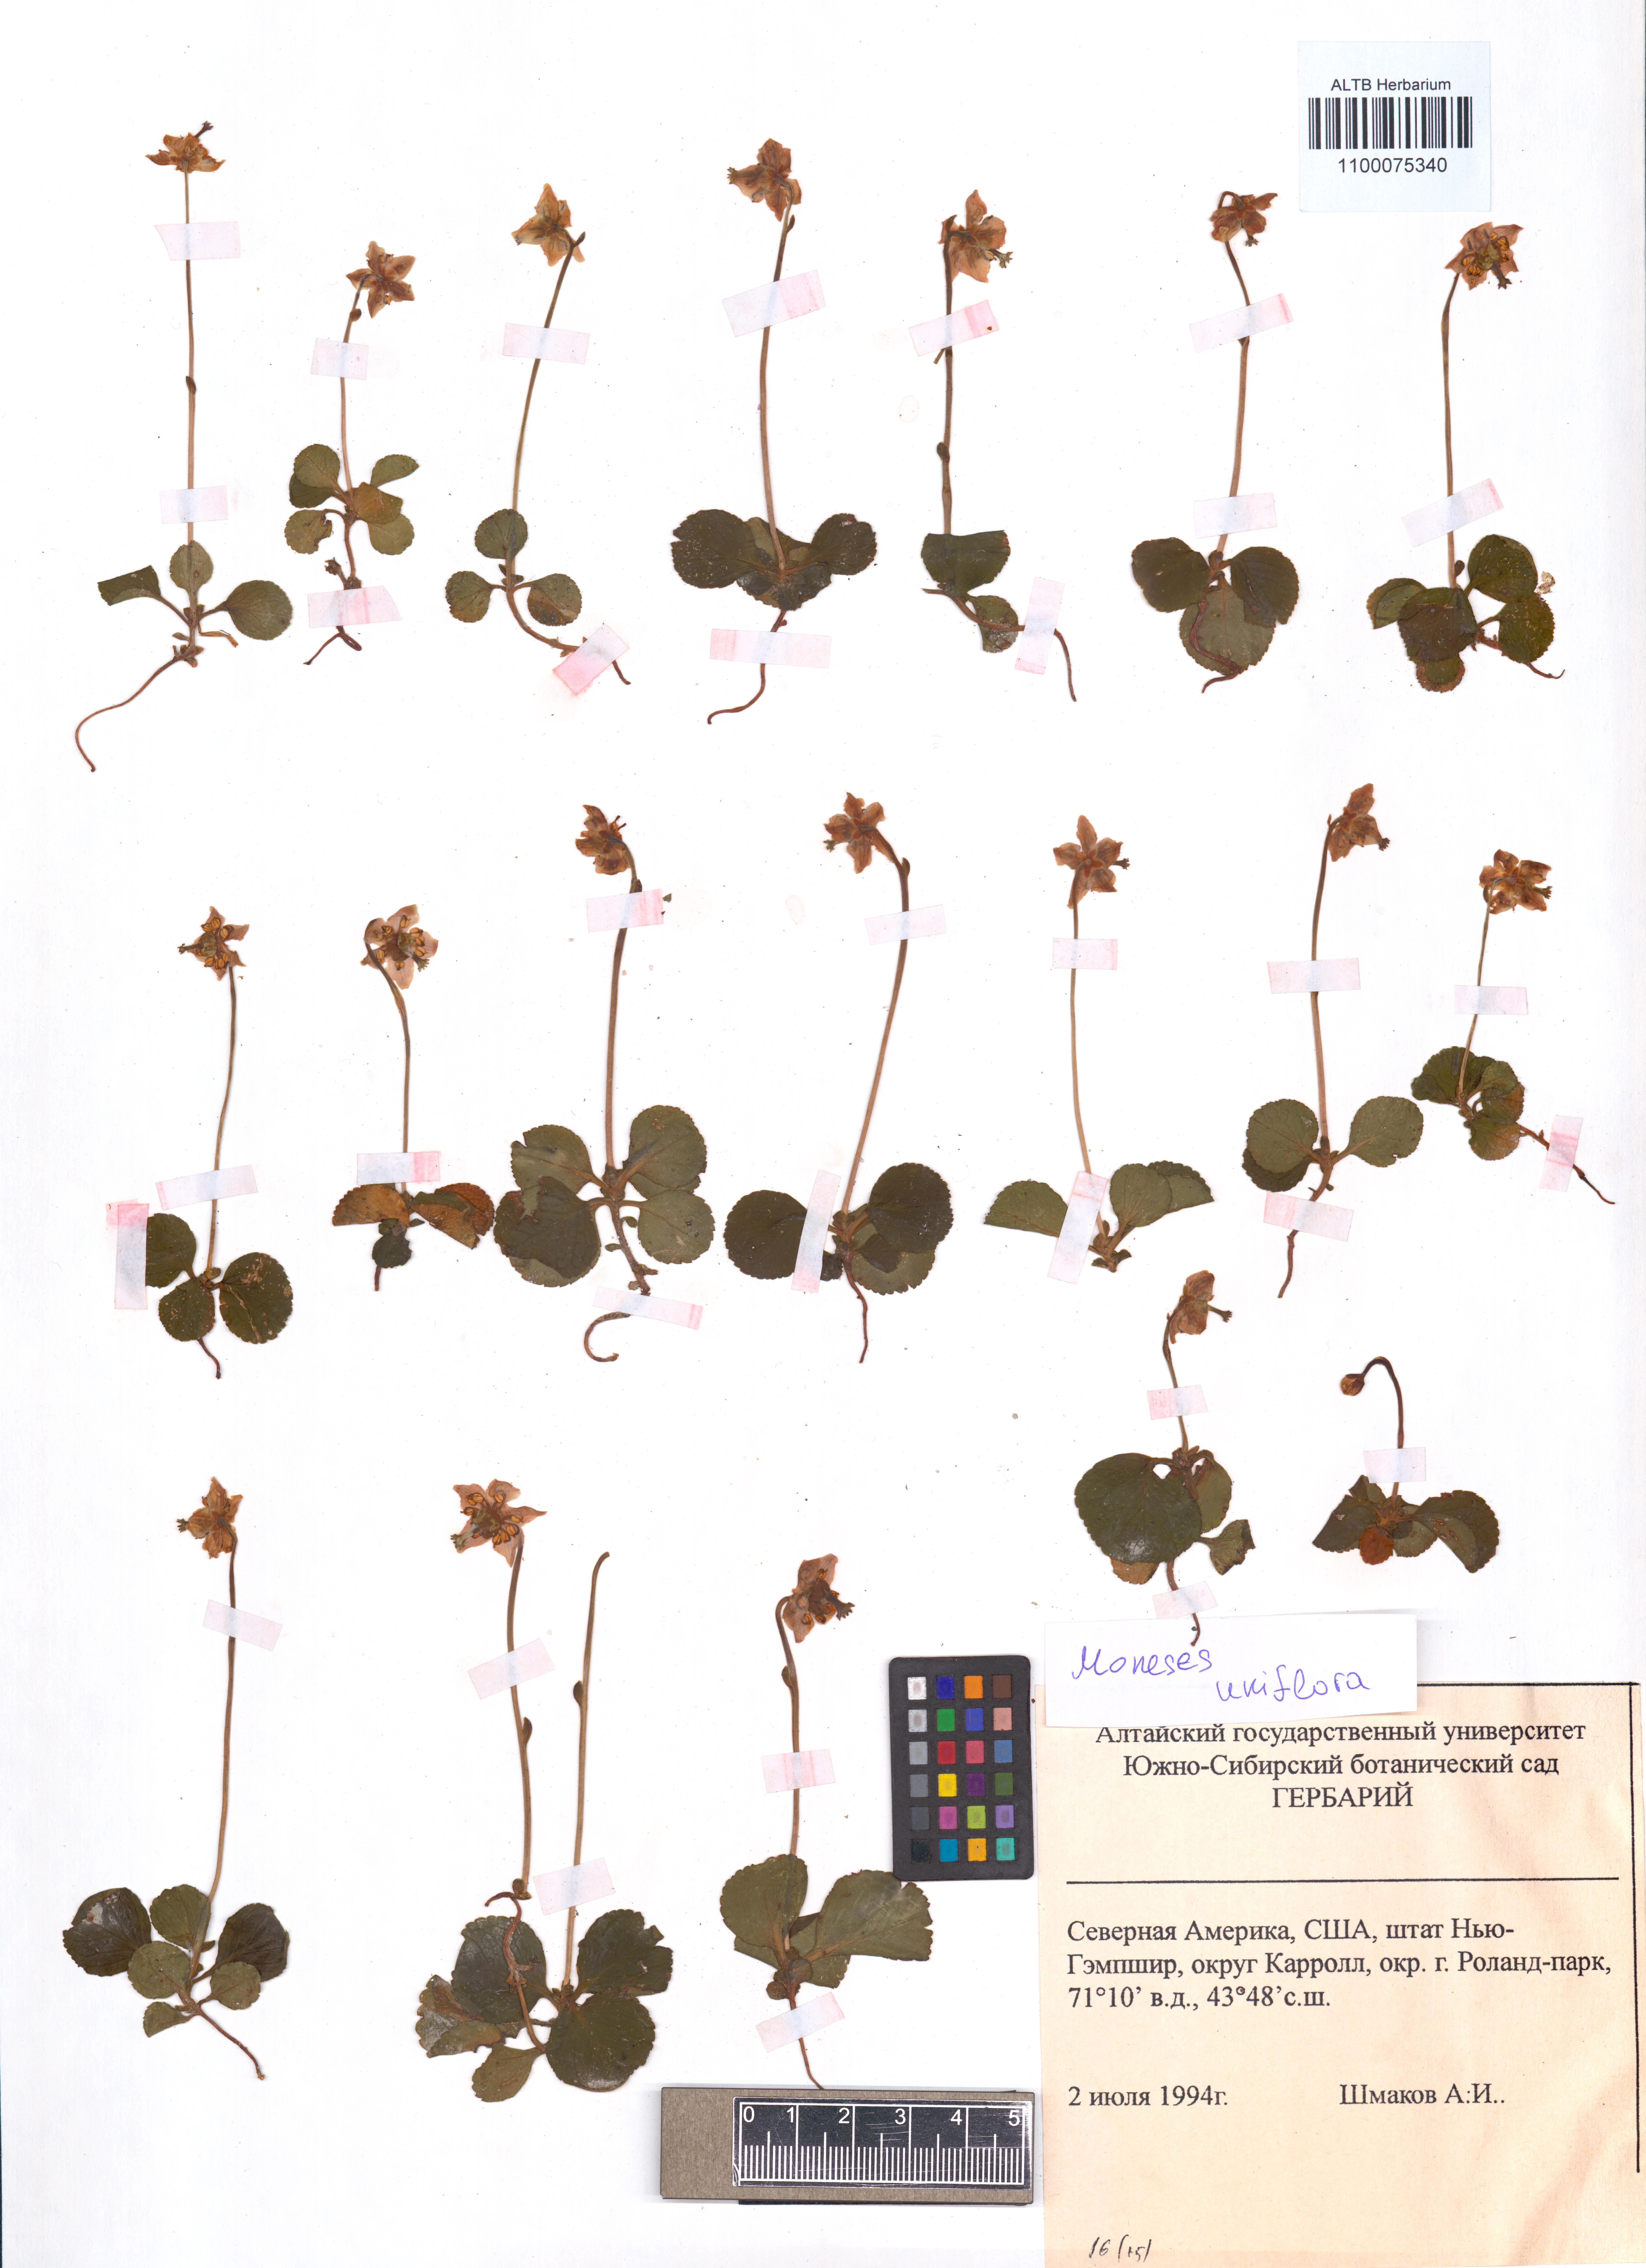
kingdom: Plantae
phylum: Tracheophyta
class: Magnoliopsida
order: Ericales
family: Ericaceae
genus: Moneses
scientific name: Moneses uniflora
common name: One-flowered wintergreen
